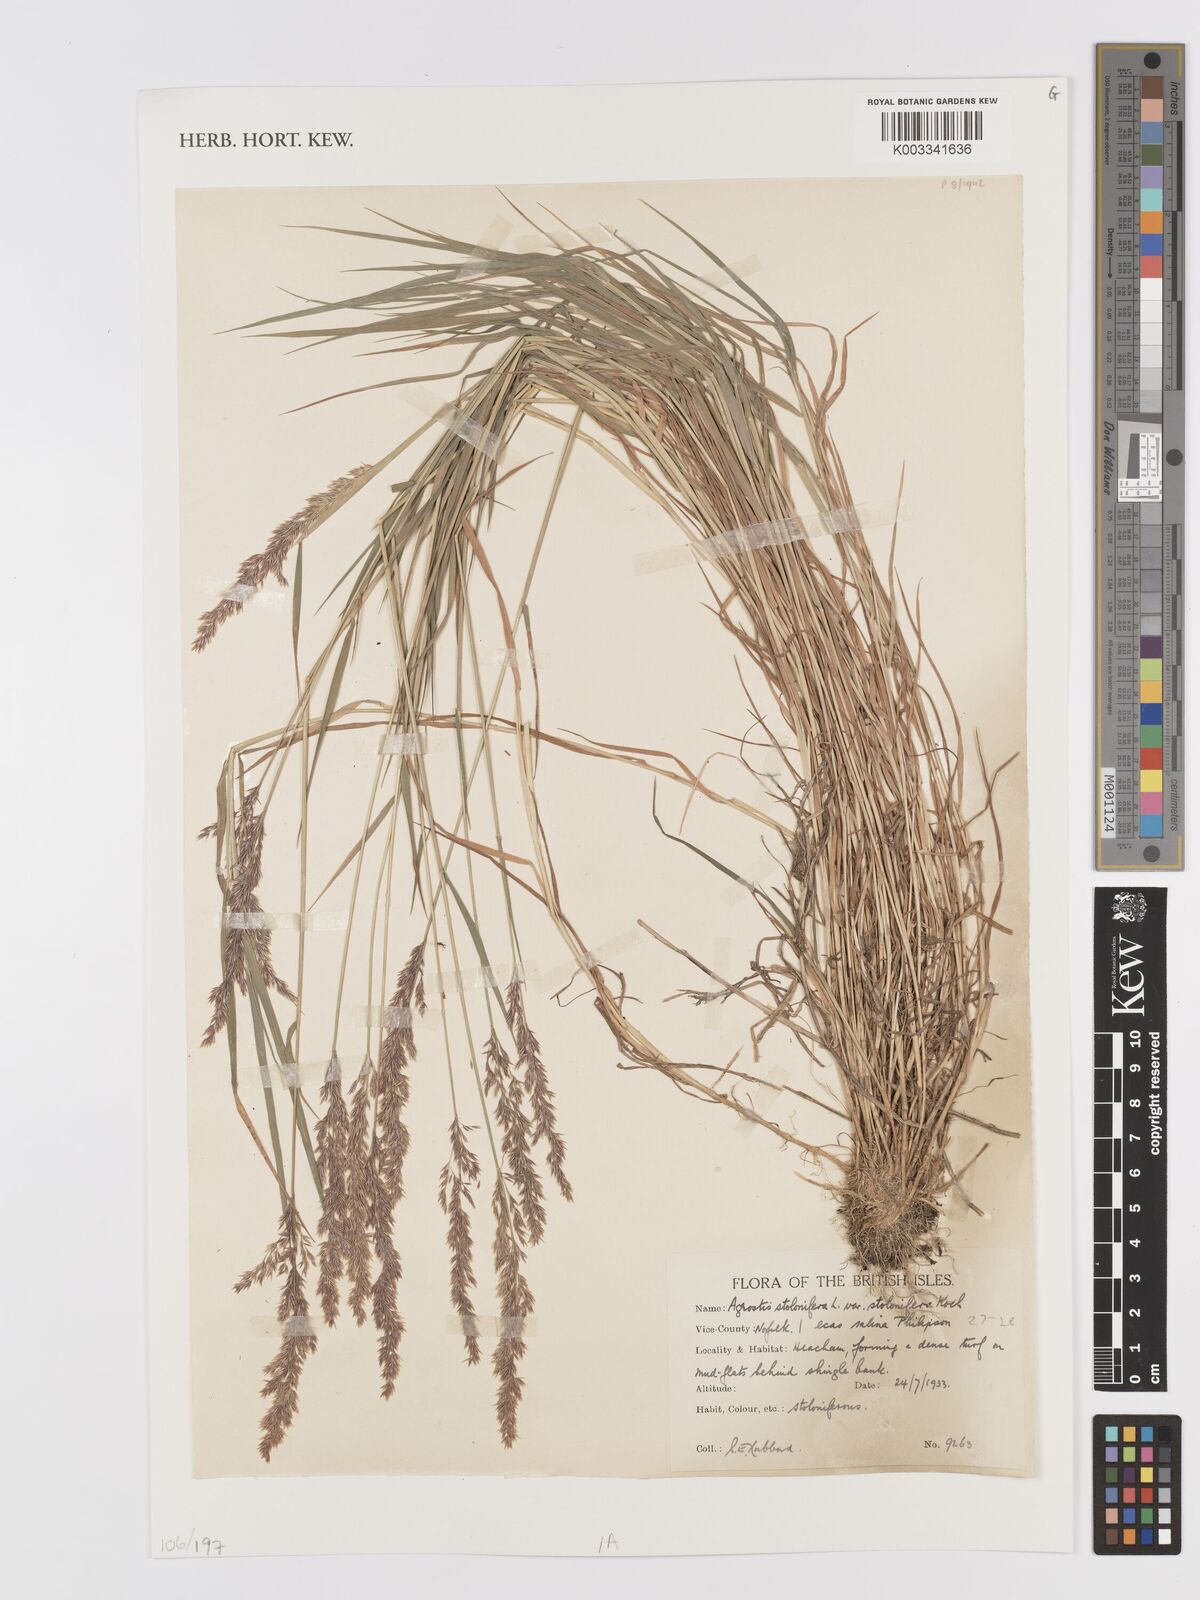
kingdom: Plantae
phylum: Tracheophyta
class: Liliopsida
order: Poales
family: Poaceae
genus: Agrostis
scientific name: Agrostis stolonifera
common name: Creeping bentgrass
